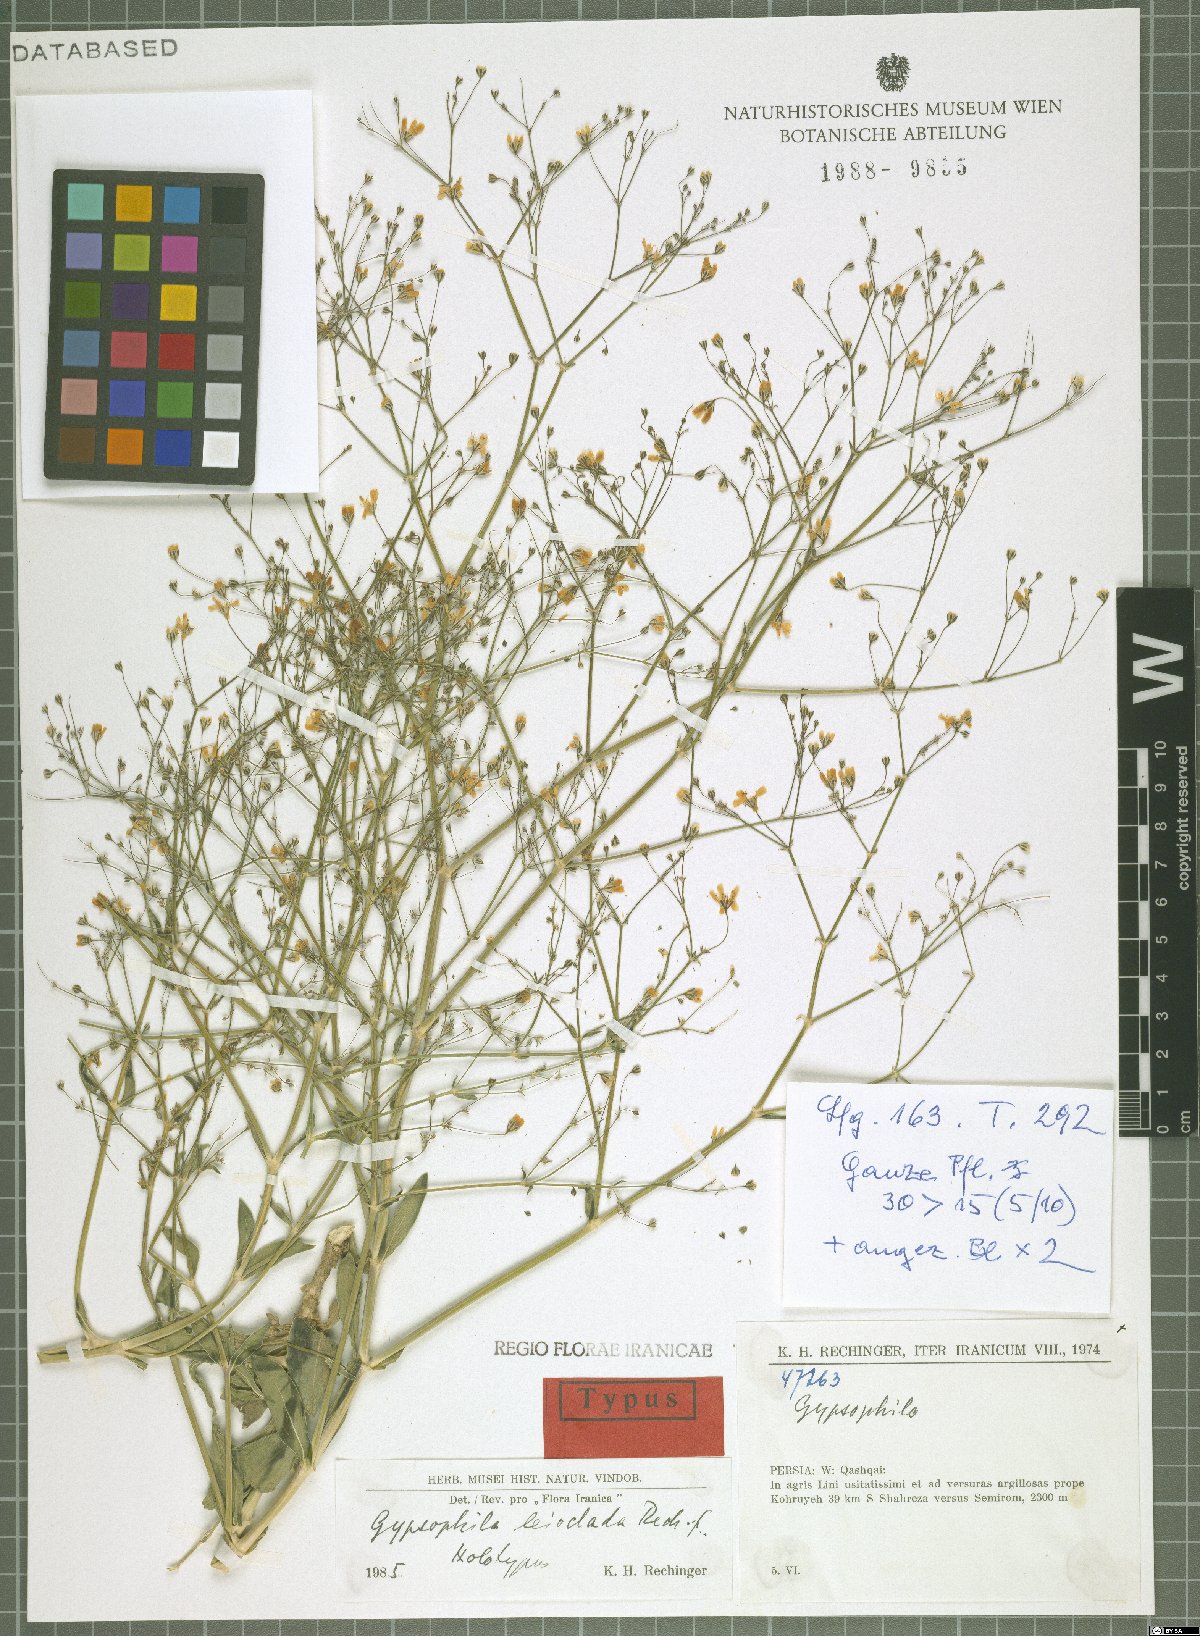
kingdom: Plantae
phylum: Tracheophyta
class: Magnoliopsida
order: Caryophyllales
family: Caryophyllaceae
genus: Gypsophila
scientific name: Gypsophila polyclada
